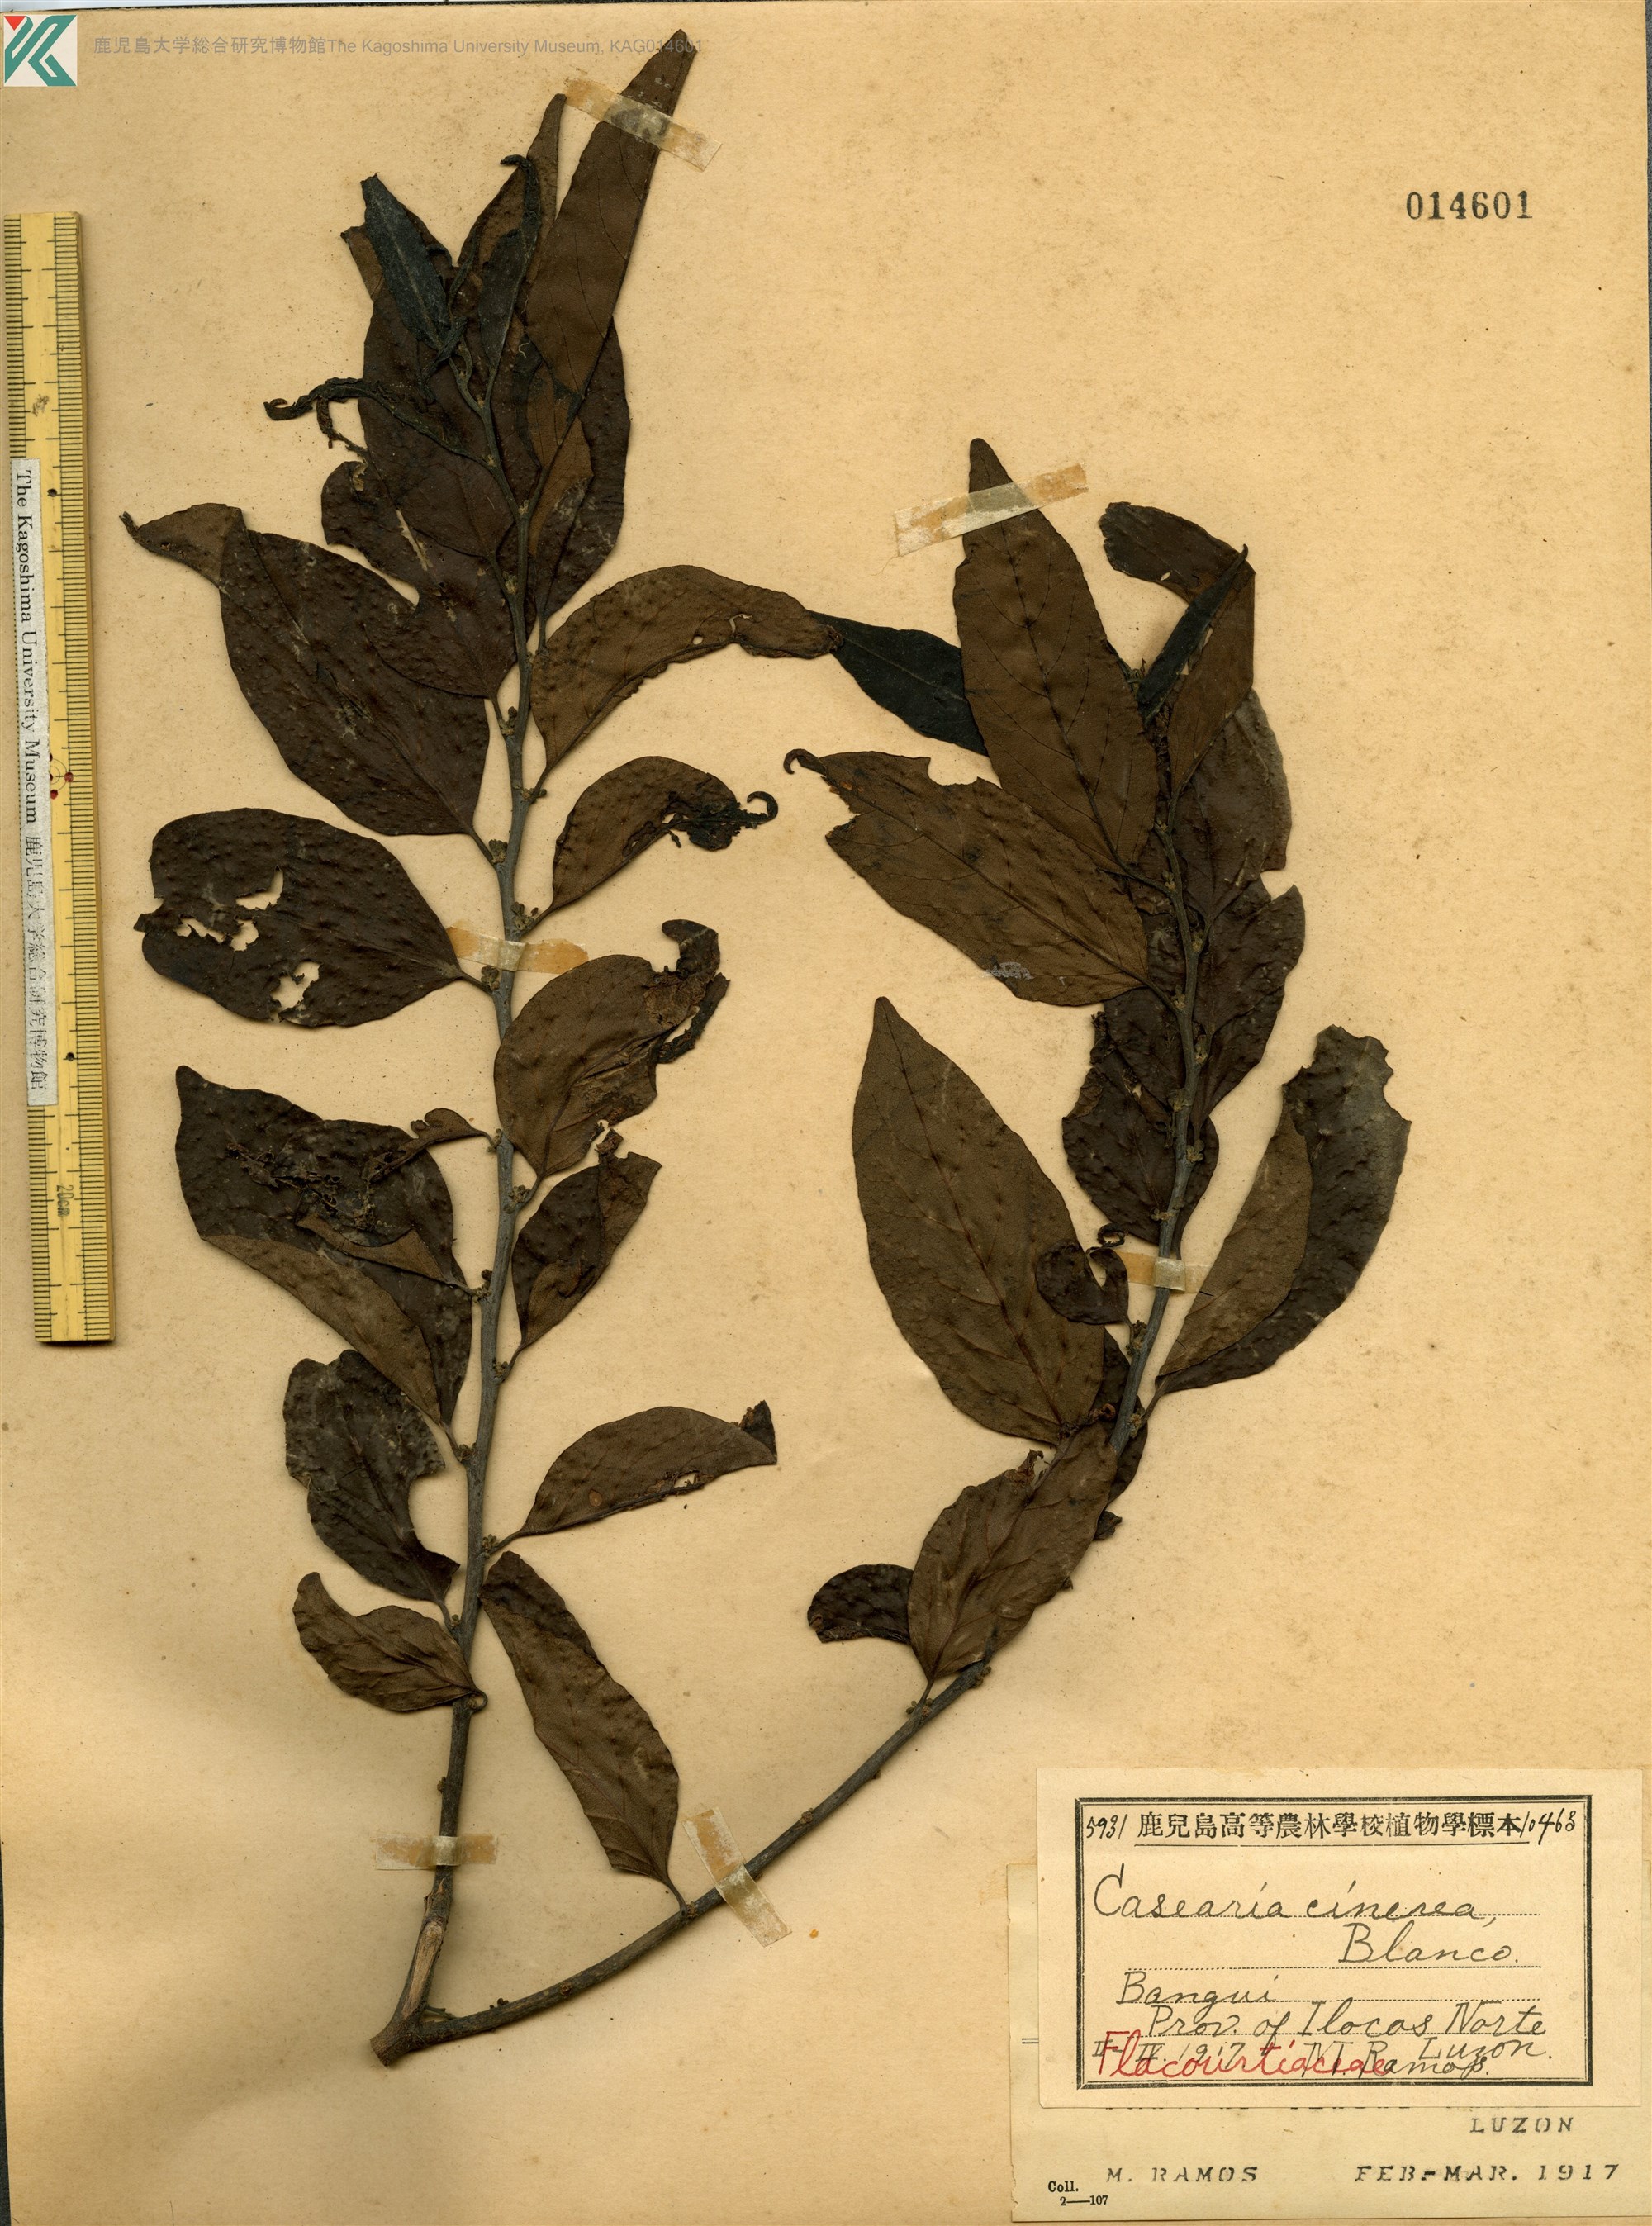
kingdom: Plantae
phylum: Tracheophyta
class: Magnoliopsida
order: Malpighiales
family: Salicaceae
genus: Casearia
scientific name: Casearia grewiifolia
